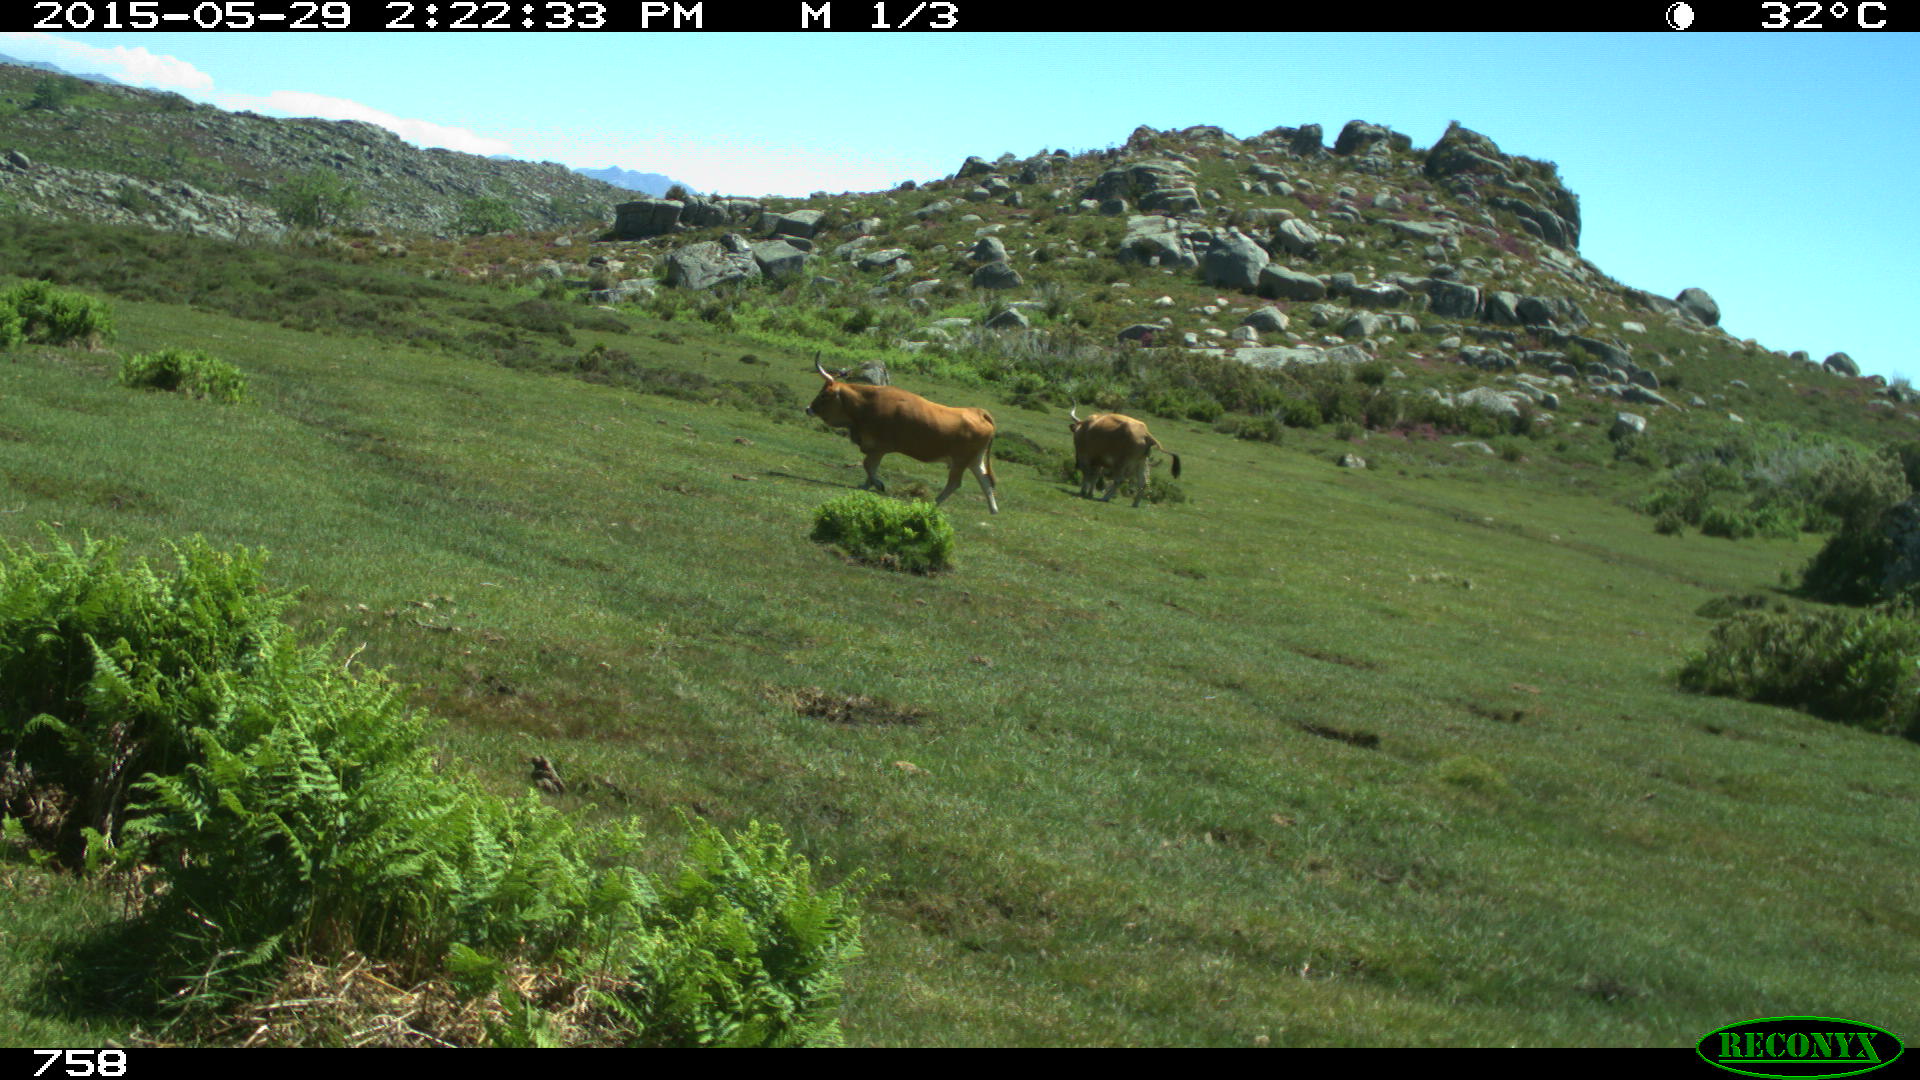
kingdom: Animalia
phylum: Chordata
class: Mammalia
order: Artiodactyla
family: Bovidae
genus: Bos
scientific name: Bos taurus
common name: Domesticated cattle
